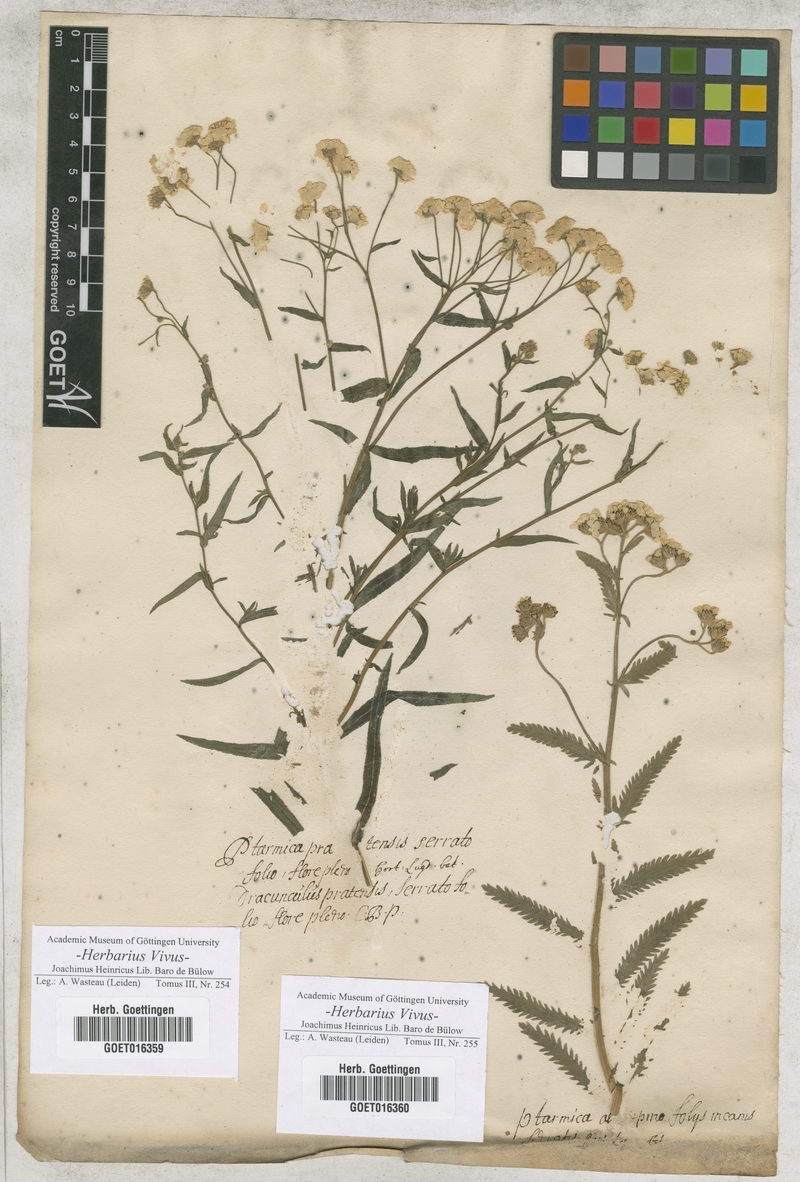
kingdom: Plantae
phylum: Tracheophyta
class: Magnoliopsida
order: Asterales
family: Asteraceae
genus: Achillea
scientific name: Achillea ptarmica
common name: Sneezeweed
